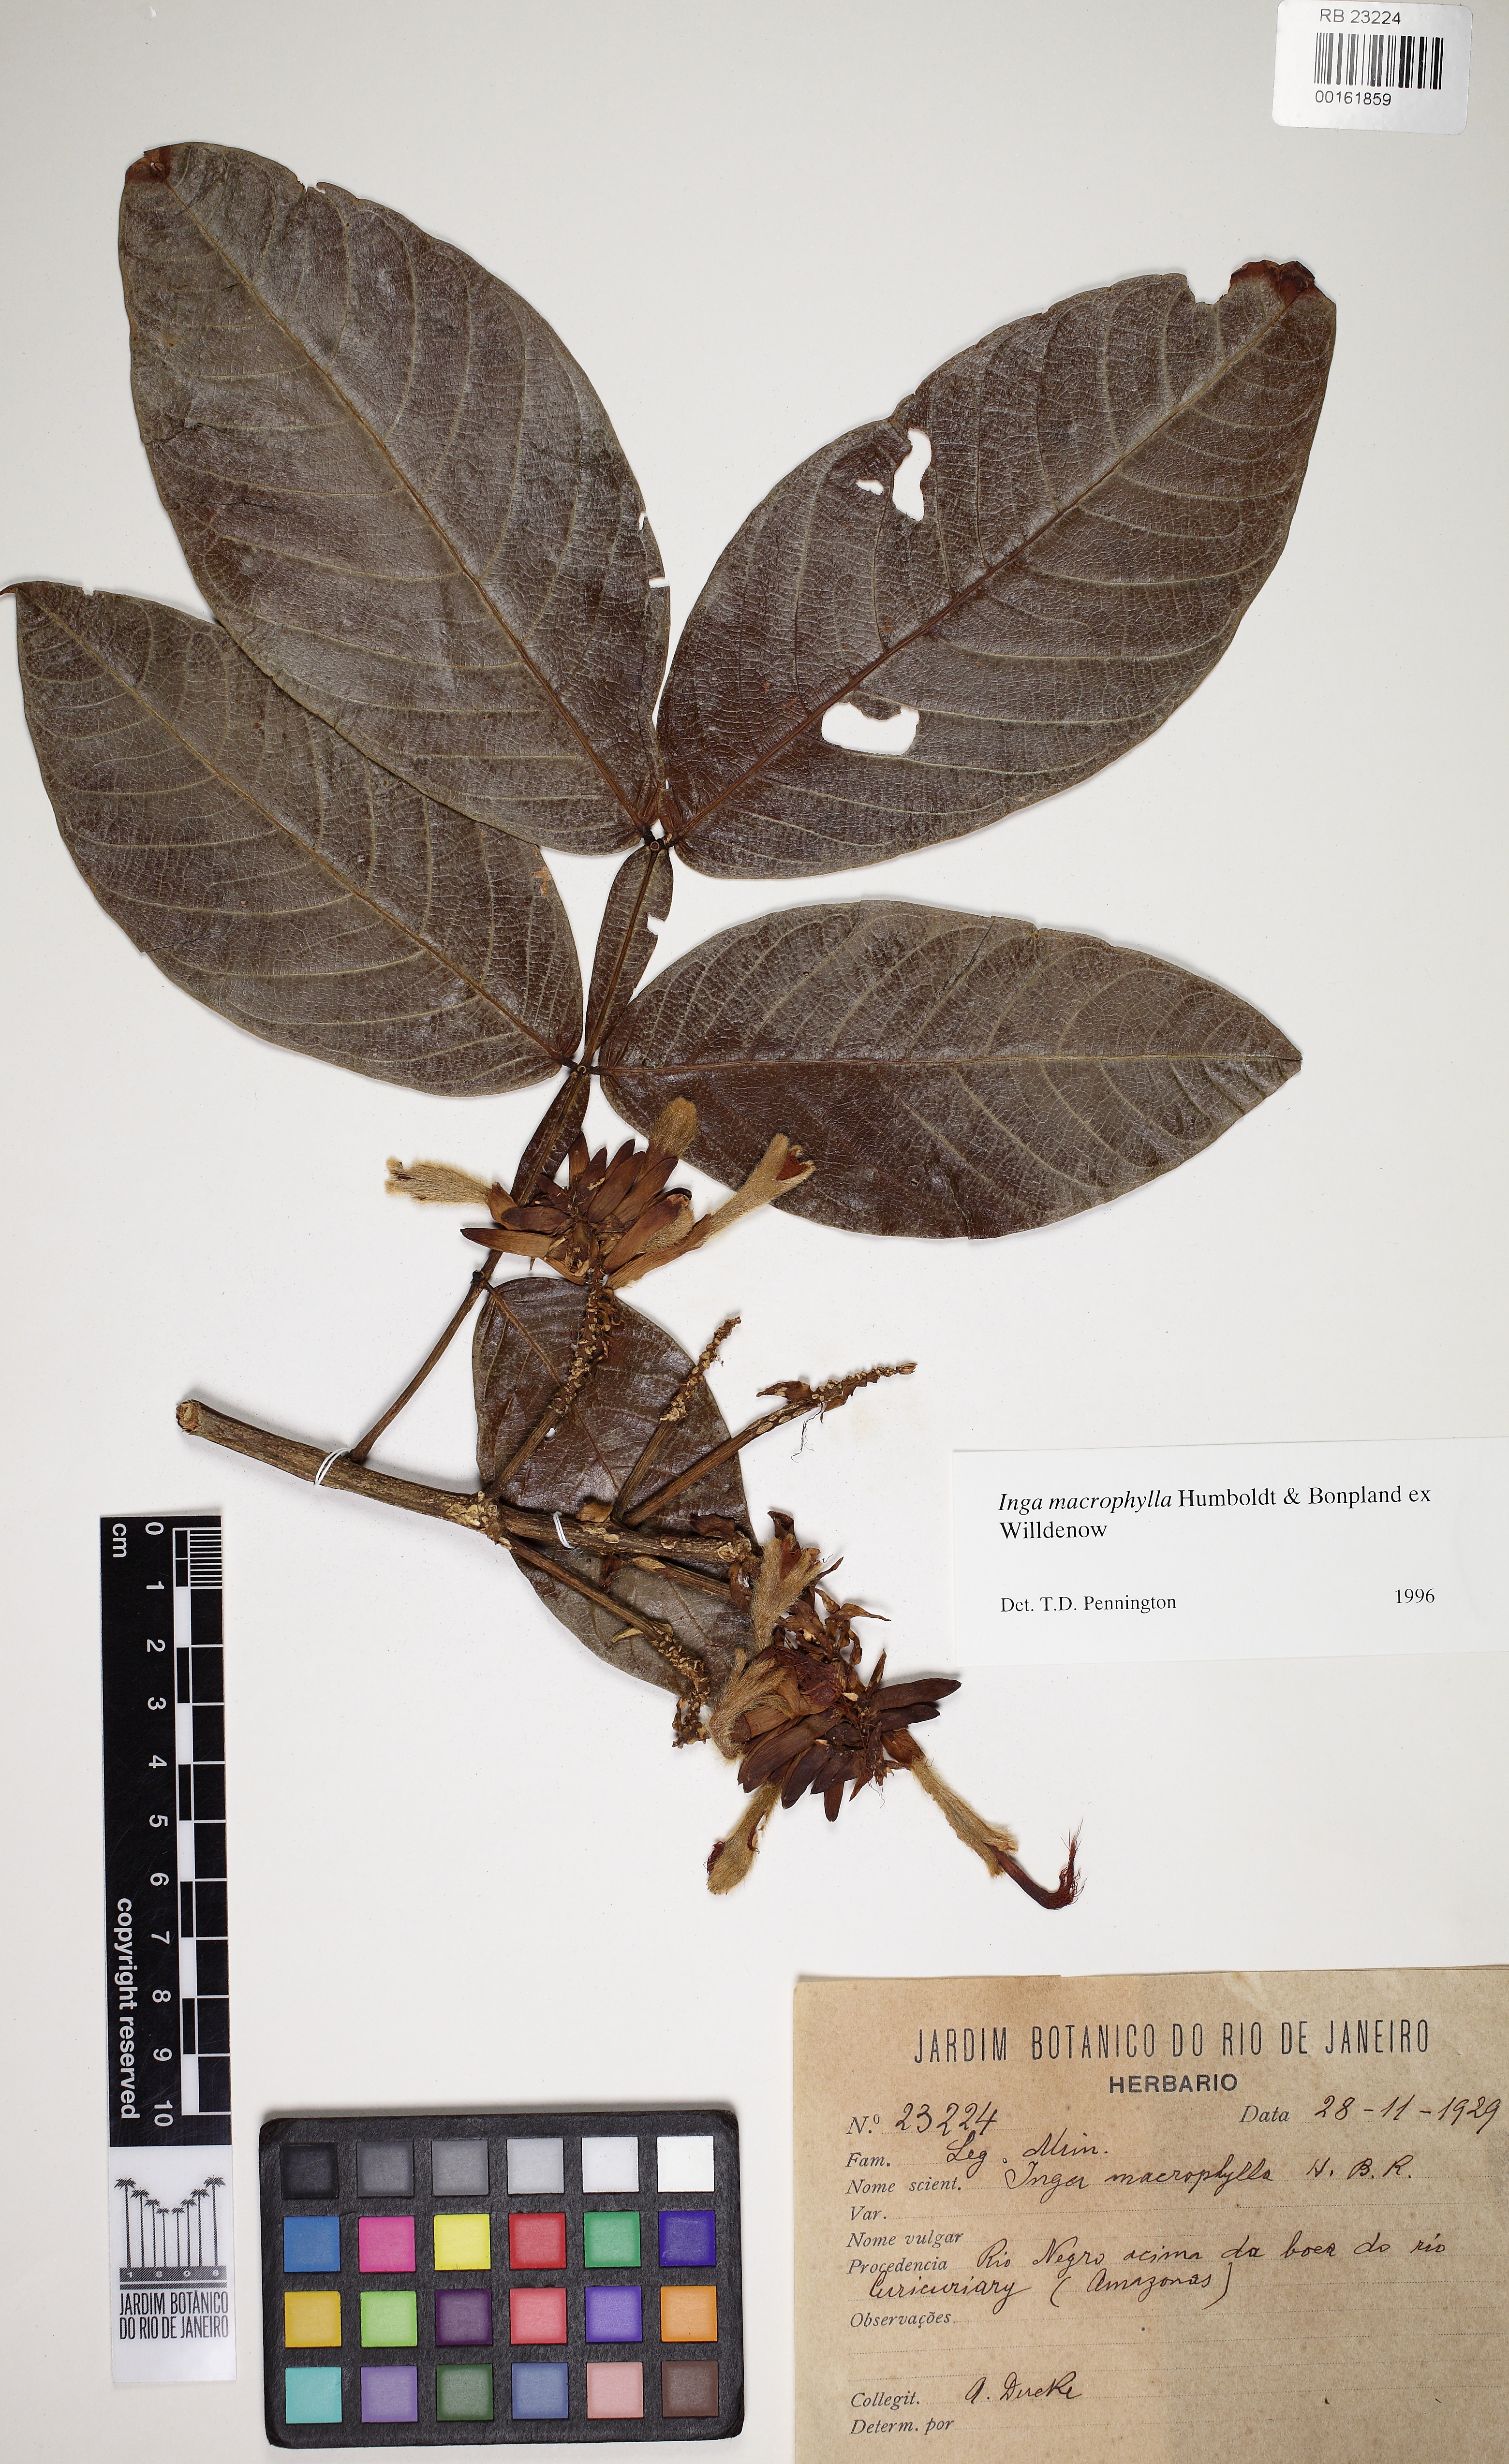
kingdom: Plantae
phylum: Tracheophyta
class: Magnoliopsida
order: Fabales
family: Fabaceae
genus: Inga
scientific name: Inga macrophylla
